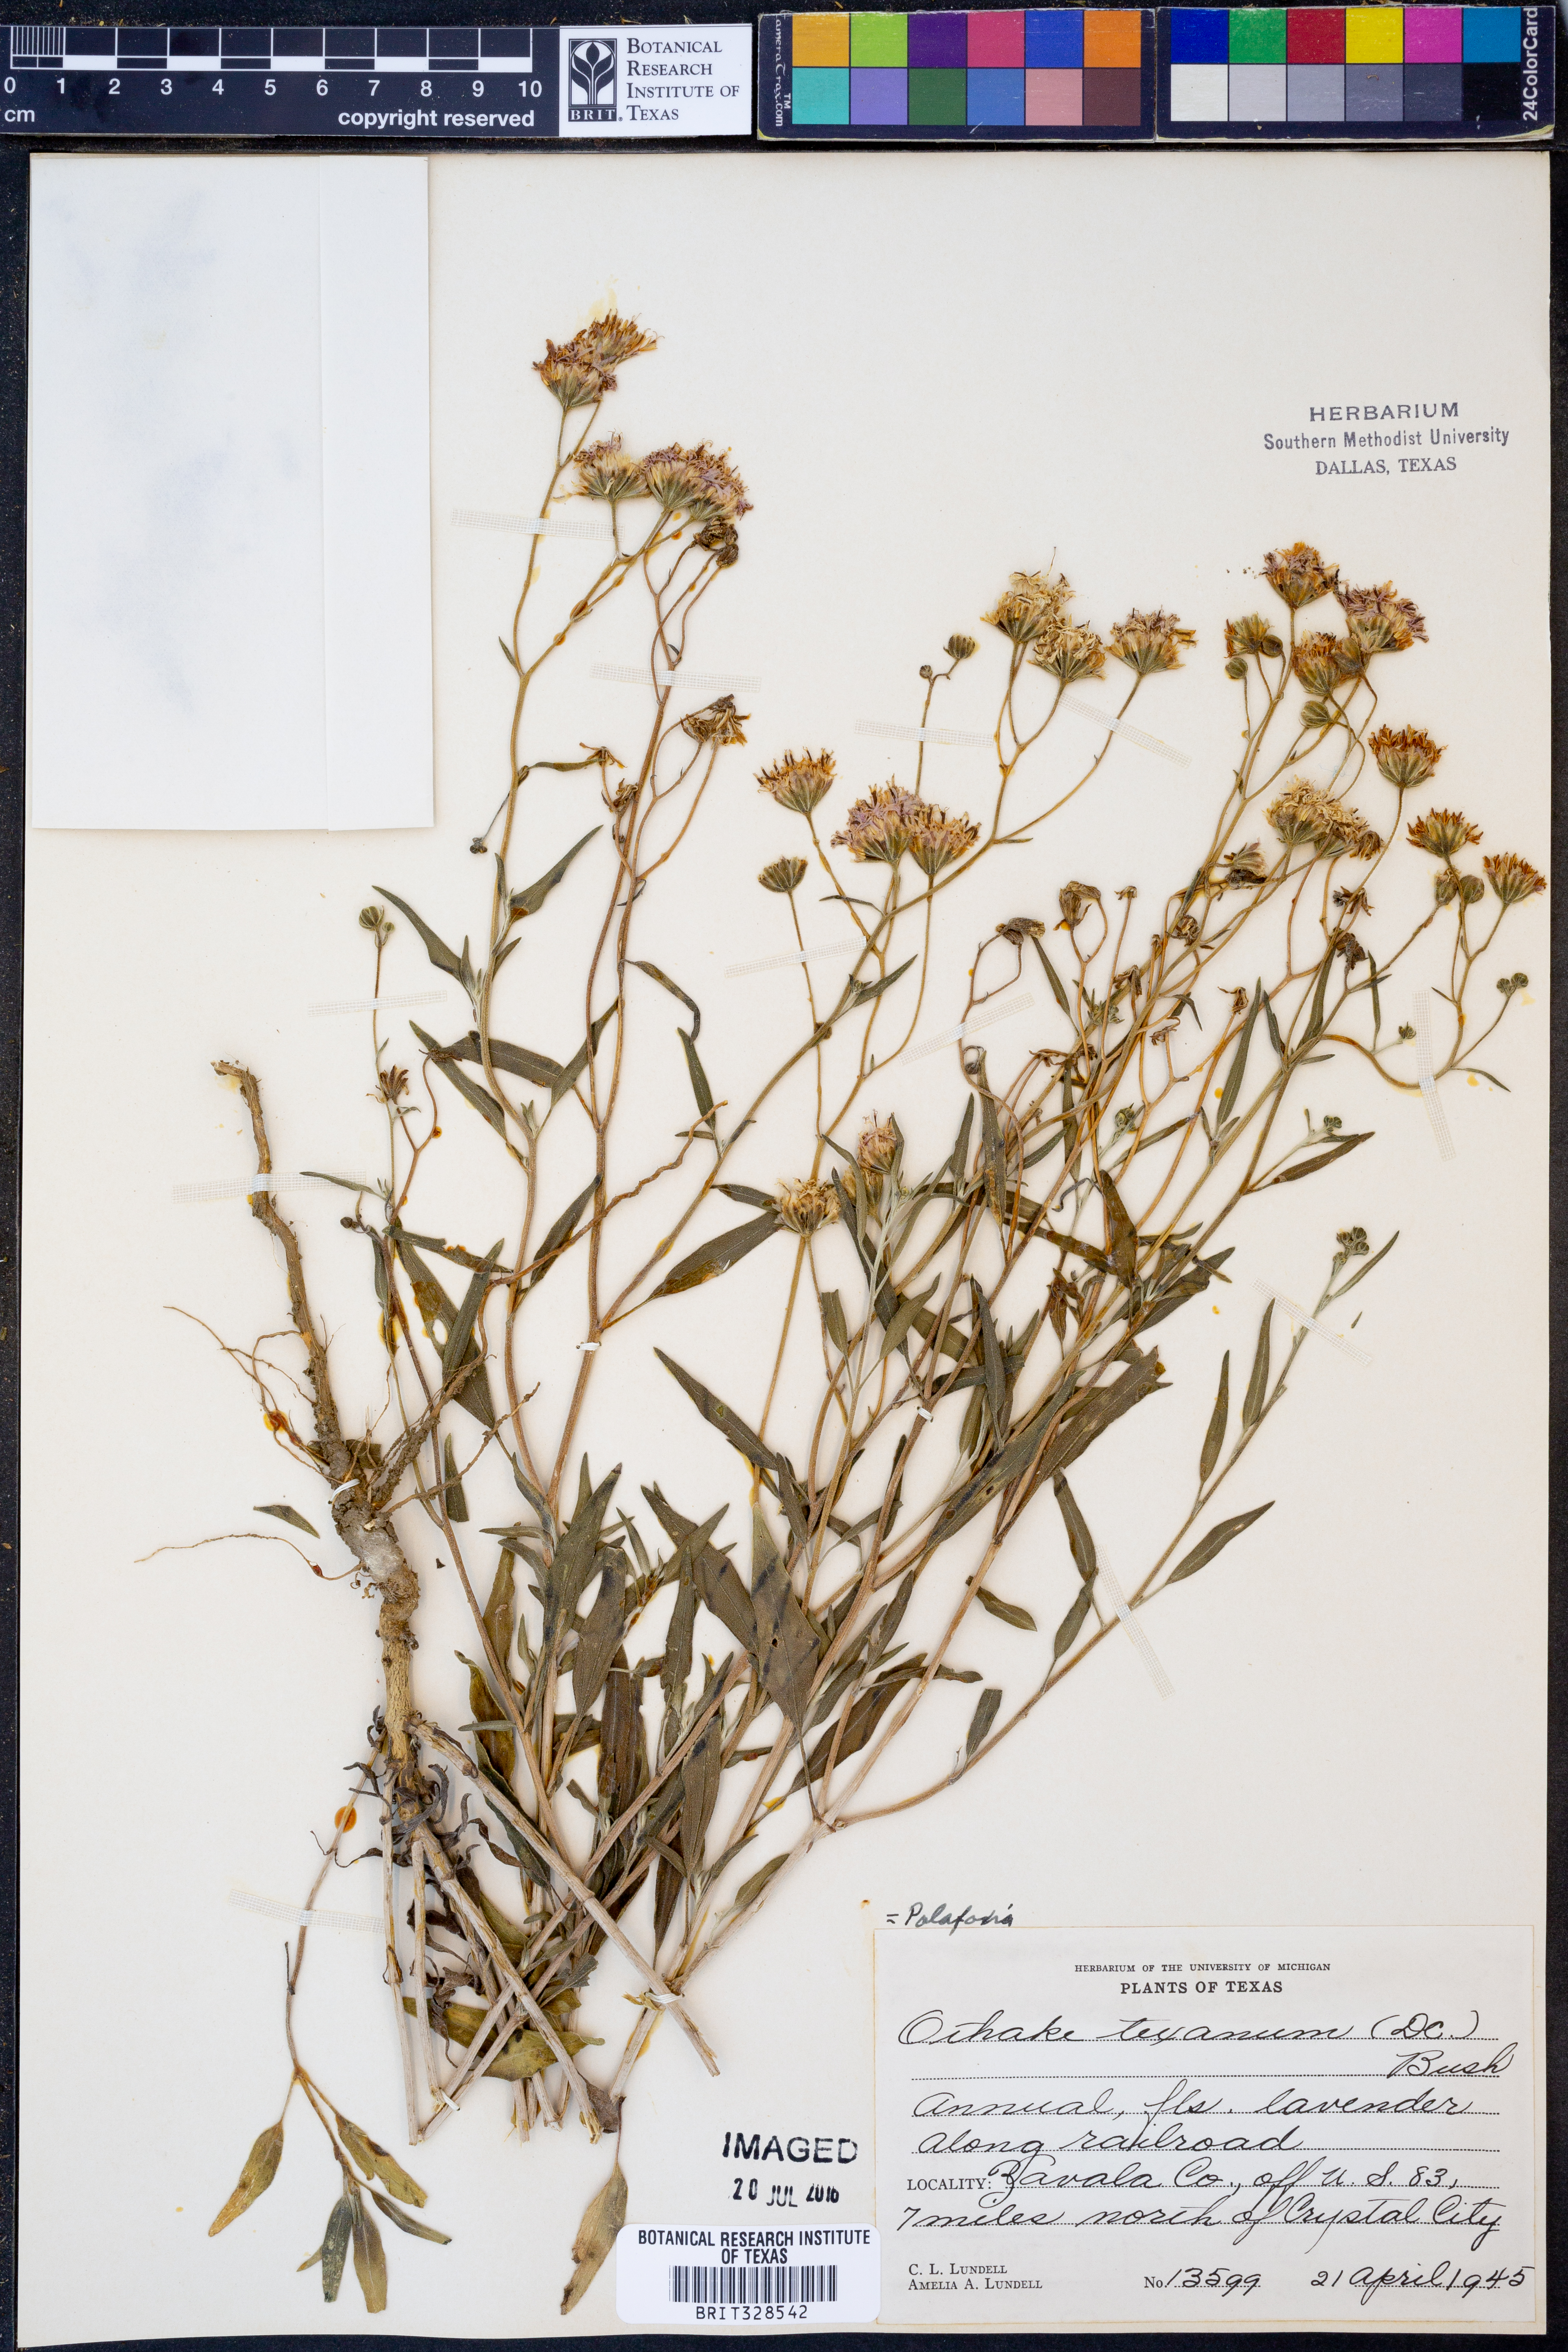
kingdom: Plantae
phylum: Tracheophyta
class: Magnoliopsida
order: Asterales
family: Asteraceae
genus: Palafoxia
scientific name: Palafoxia texana
